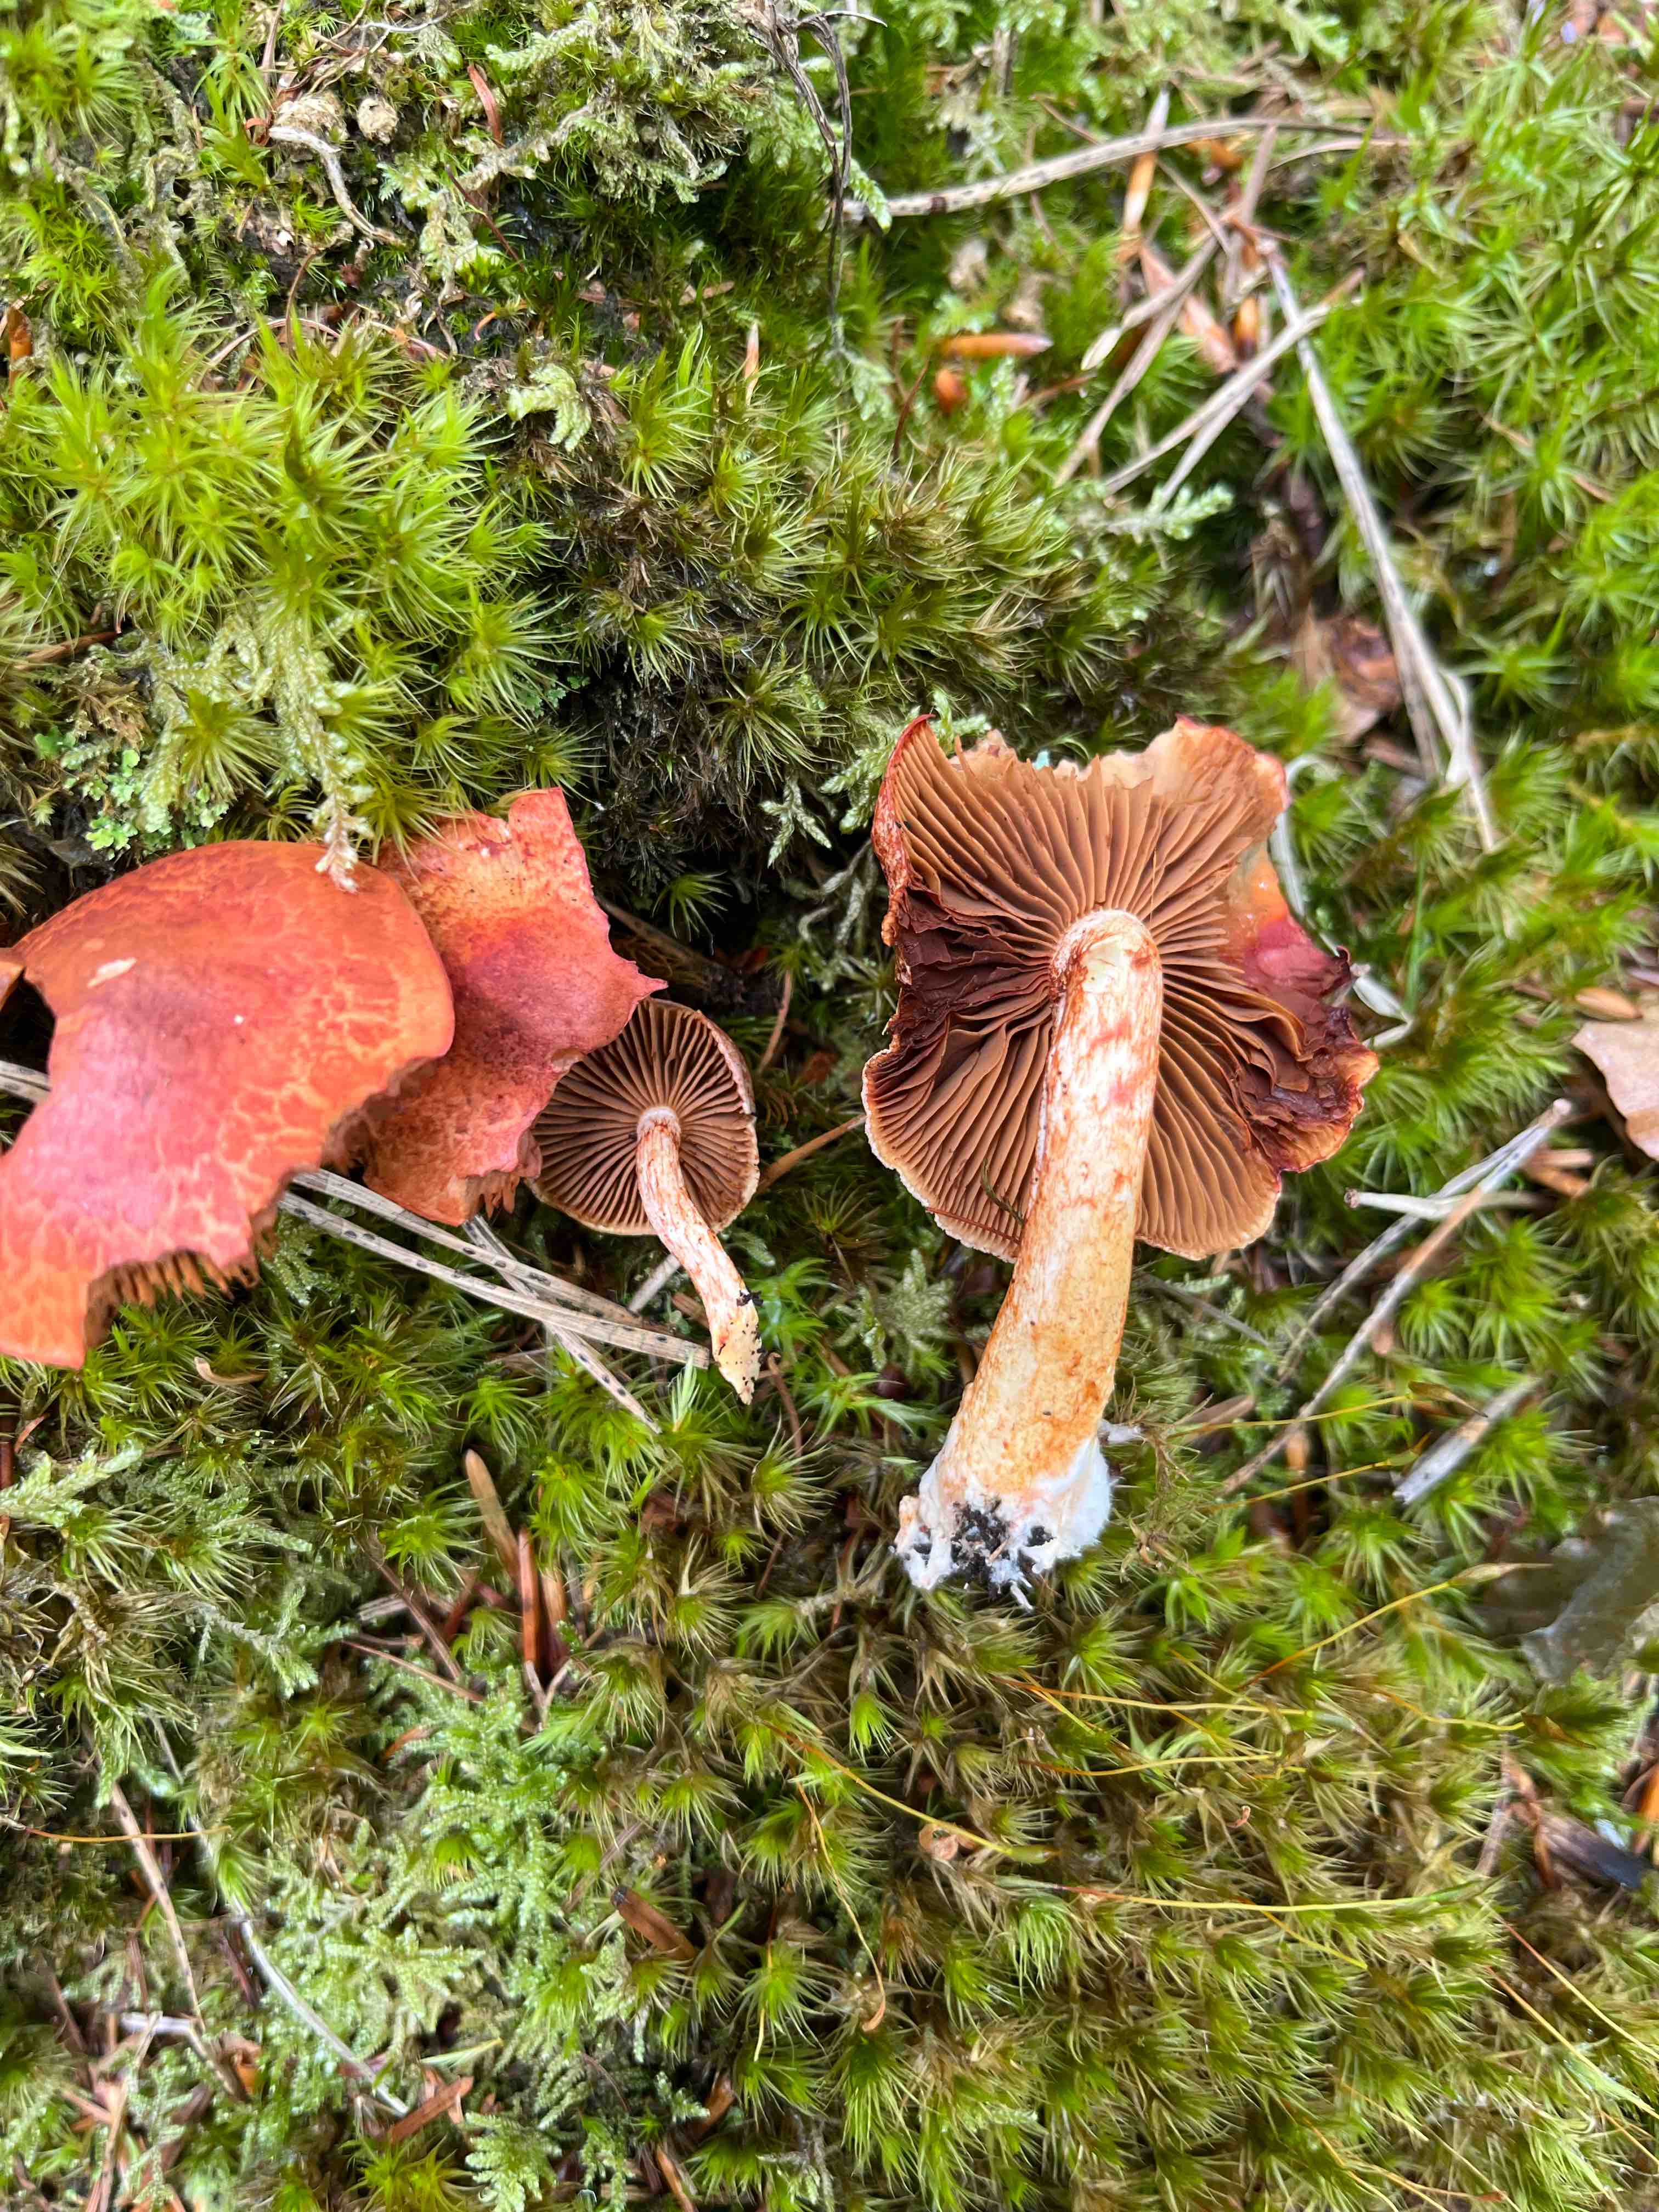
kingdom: Fungi
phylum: Basidiomycota
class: Agaricomycetes
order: Agaricales
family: Cortinariaceae
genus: Cortinarius
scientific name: Cortinarius bolaris
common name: cinnoberskællet slørhat
